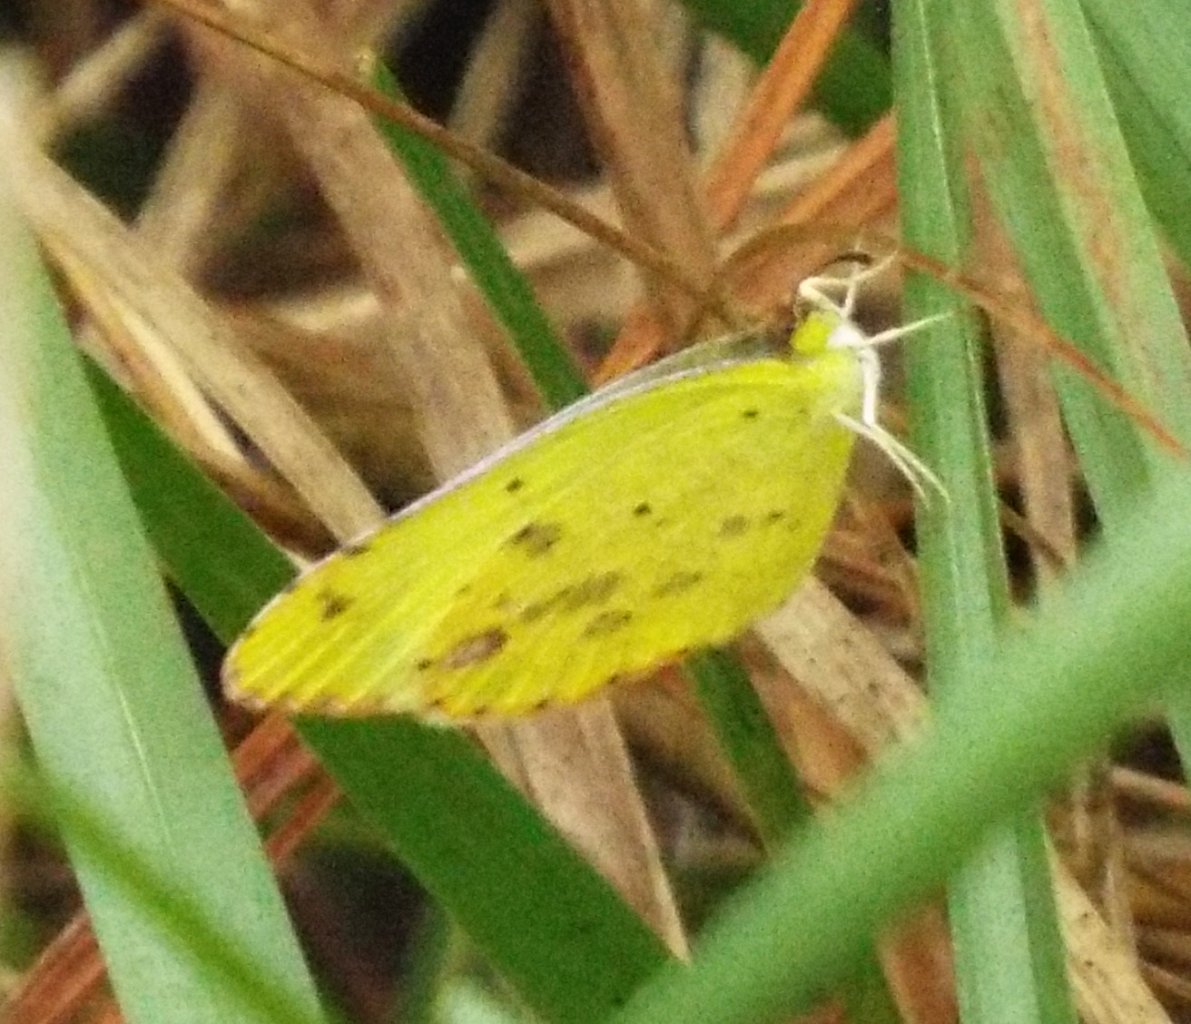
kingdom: Animalia
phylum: Arthropoda
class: Insecta
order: Lepidoptera
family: Pieridae
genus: Pyrisitia
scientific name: Pyrisitia lisa
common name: Little Yellow
